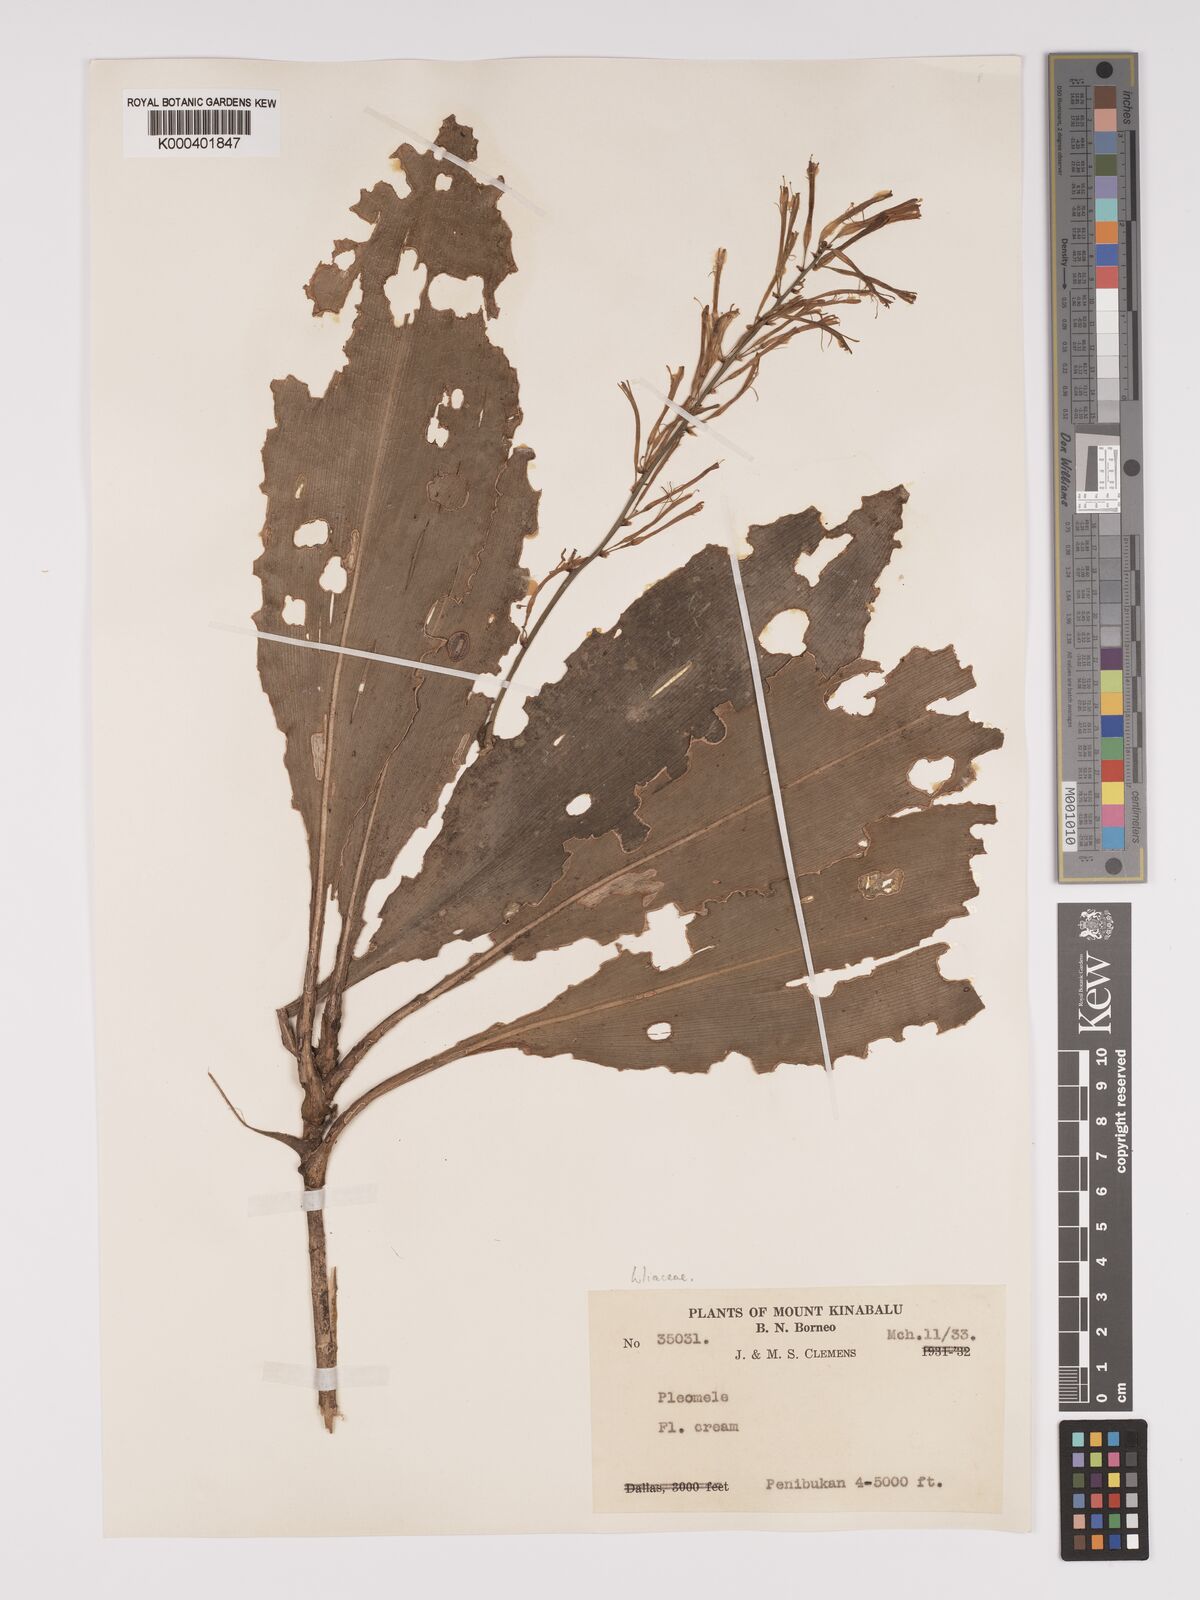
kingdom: Plantae
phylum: Tracheophyta
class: Liliopsida
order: Asparagales
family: Asparagaceae
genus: Dracaena
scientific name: Dracaena
